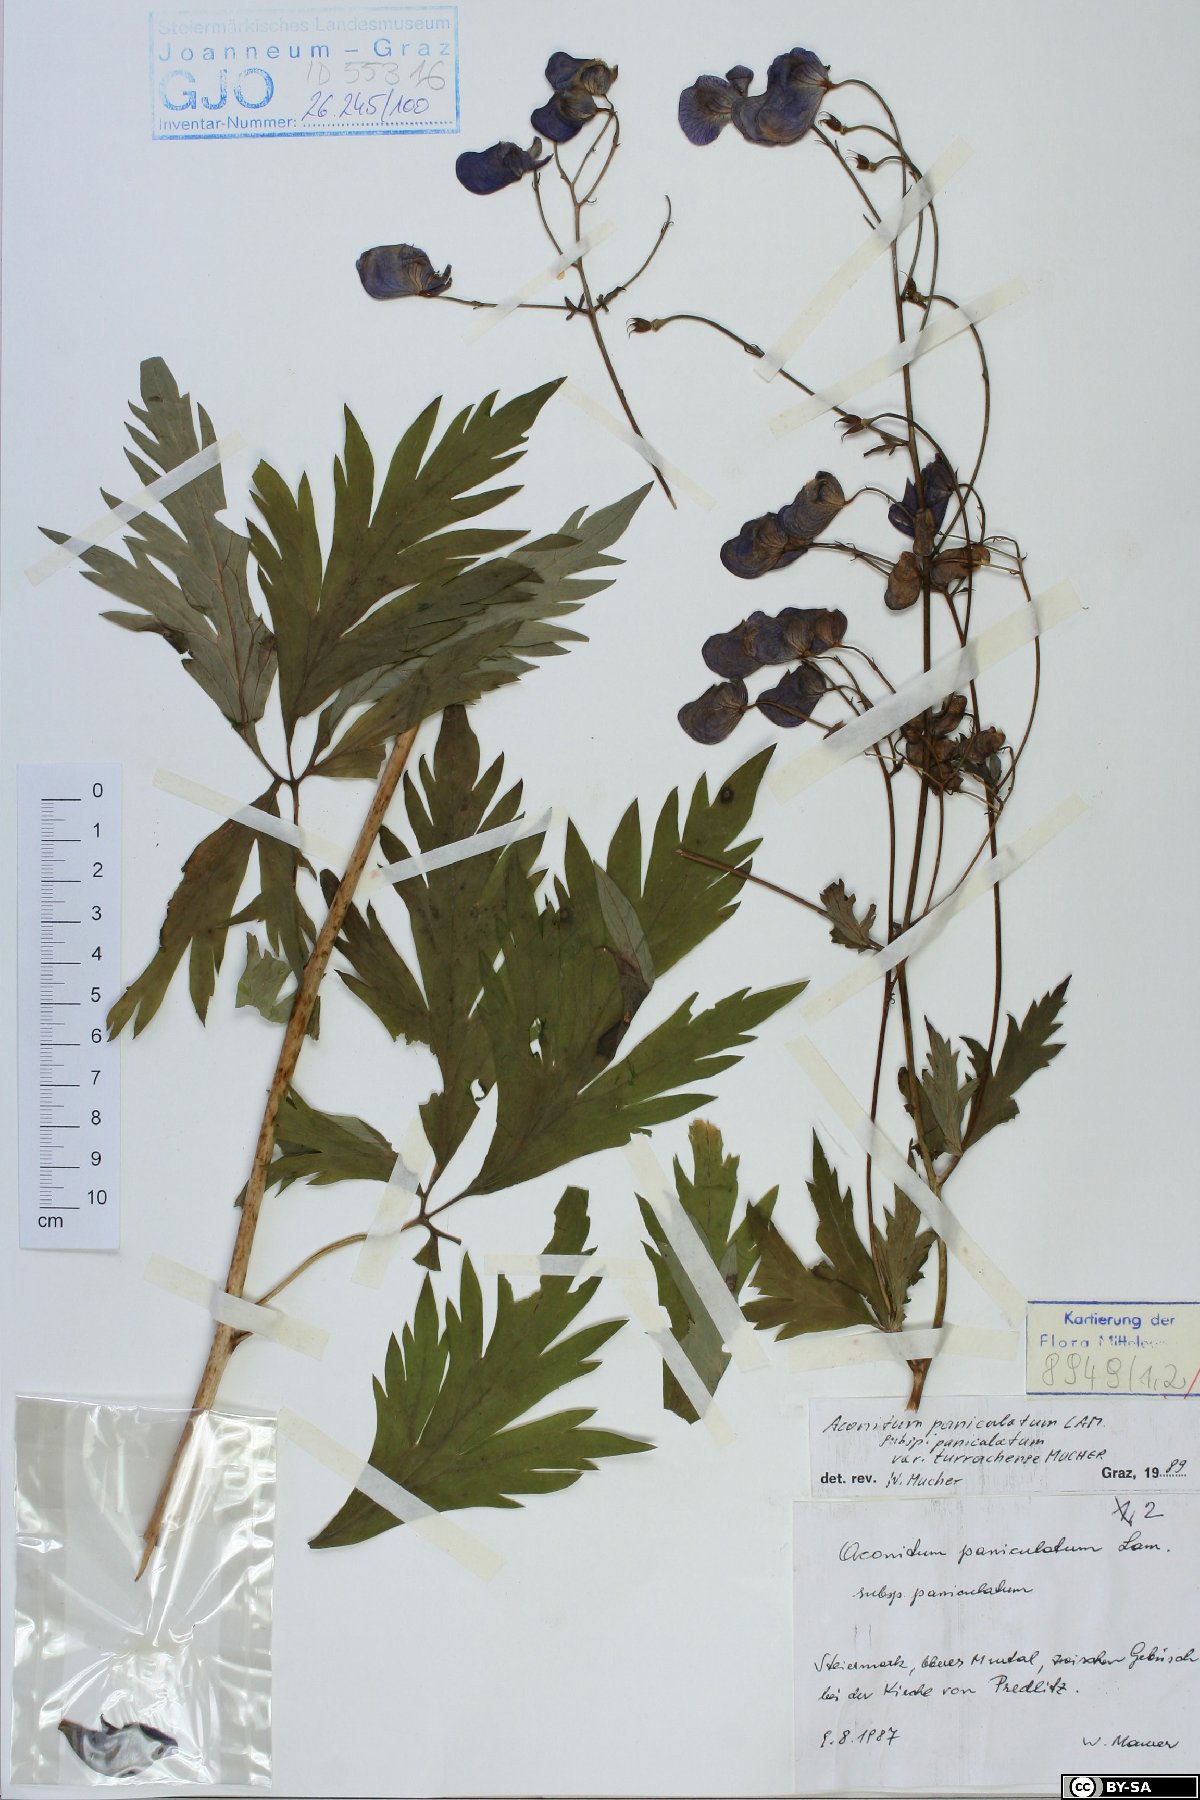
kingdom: Plantae
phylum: Tracheophyta
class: Magnoliopsida
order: Ranunculales
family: Ranunculaceae
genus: Aconitum
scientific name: Aconitum degenii
